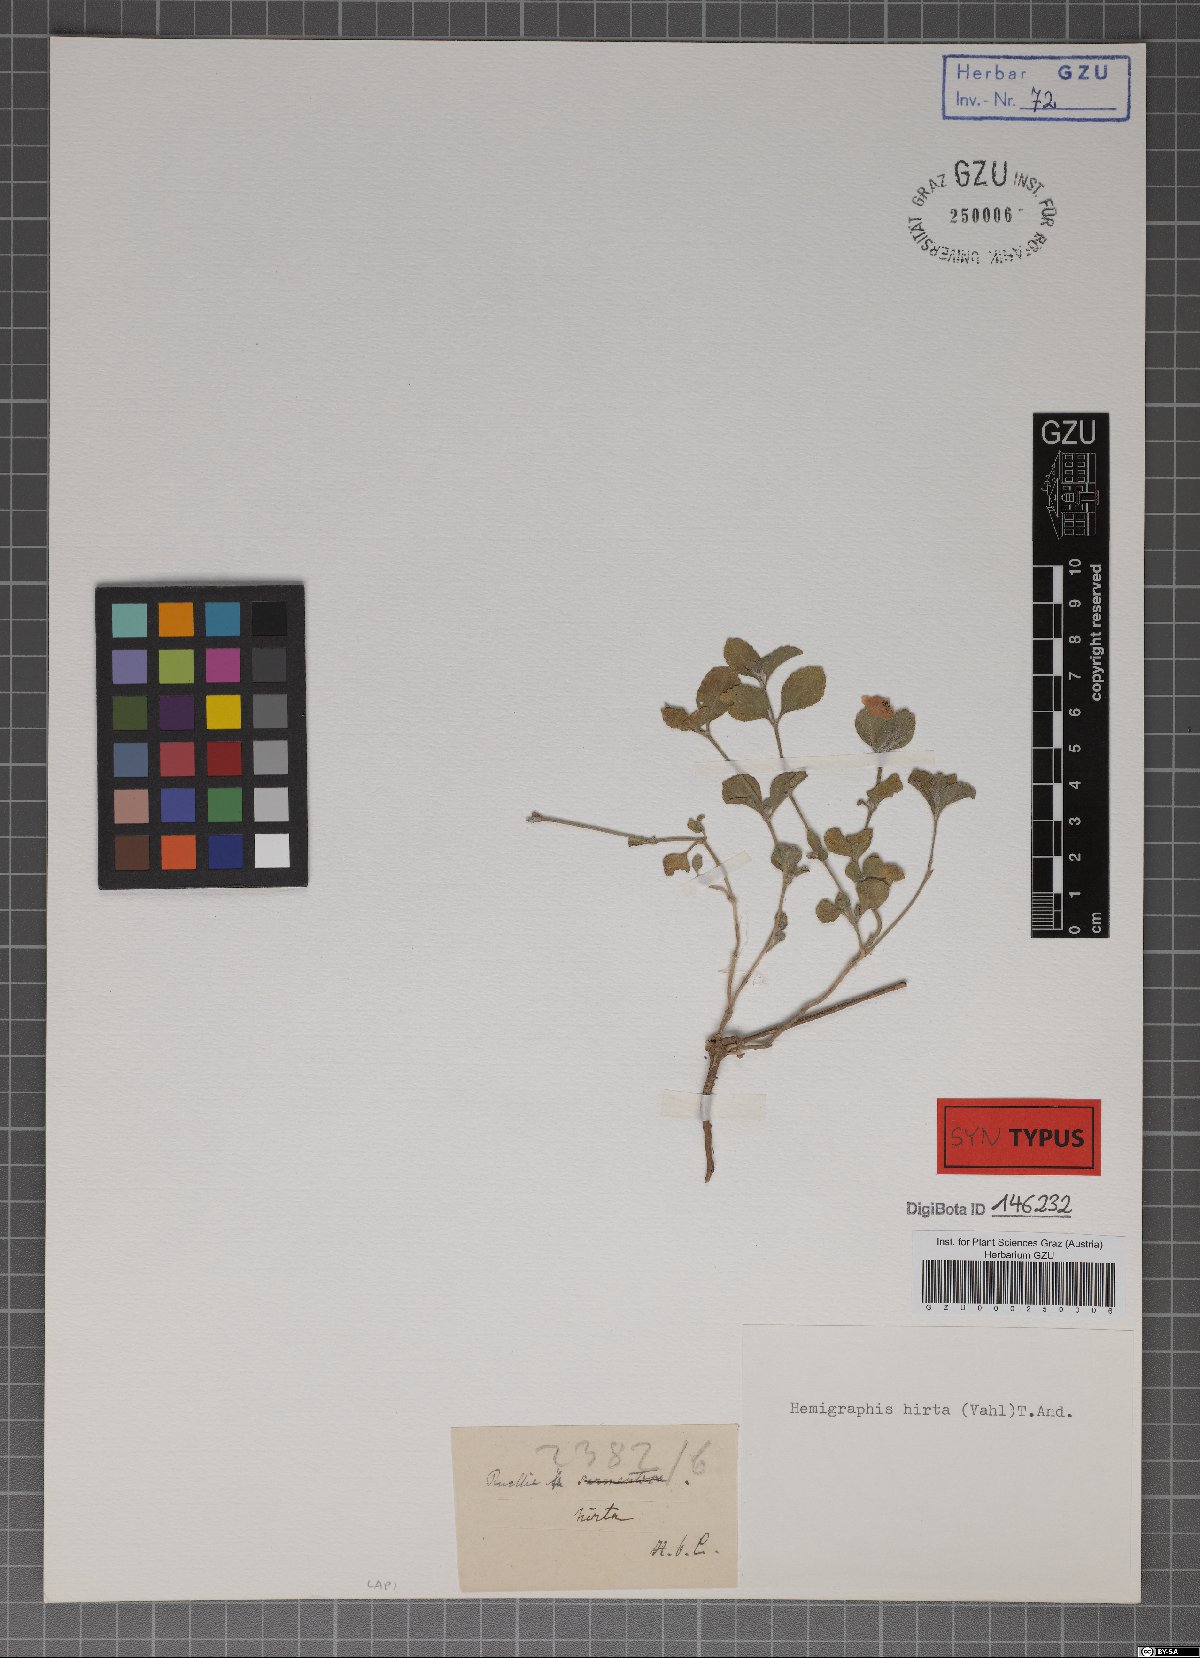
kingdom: Plantae
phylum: Tracheophyta
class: Magnoliopsida
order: Lamiales
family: Acanthaceae
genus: Strobilanthes
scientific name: Strobilanthes hirta
